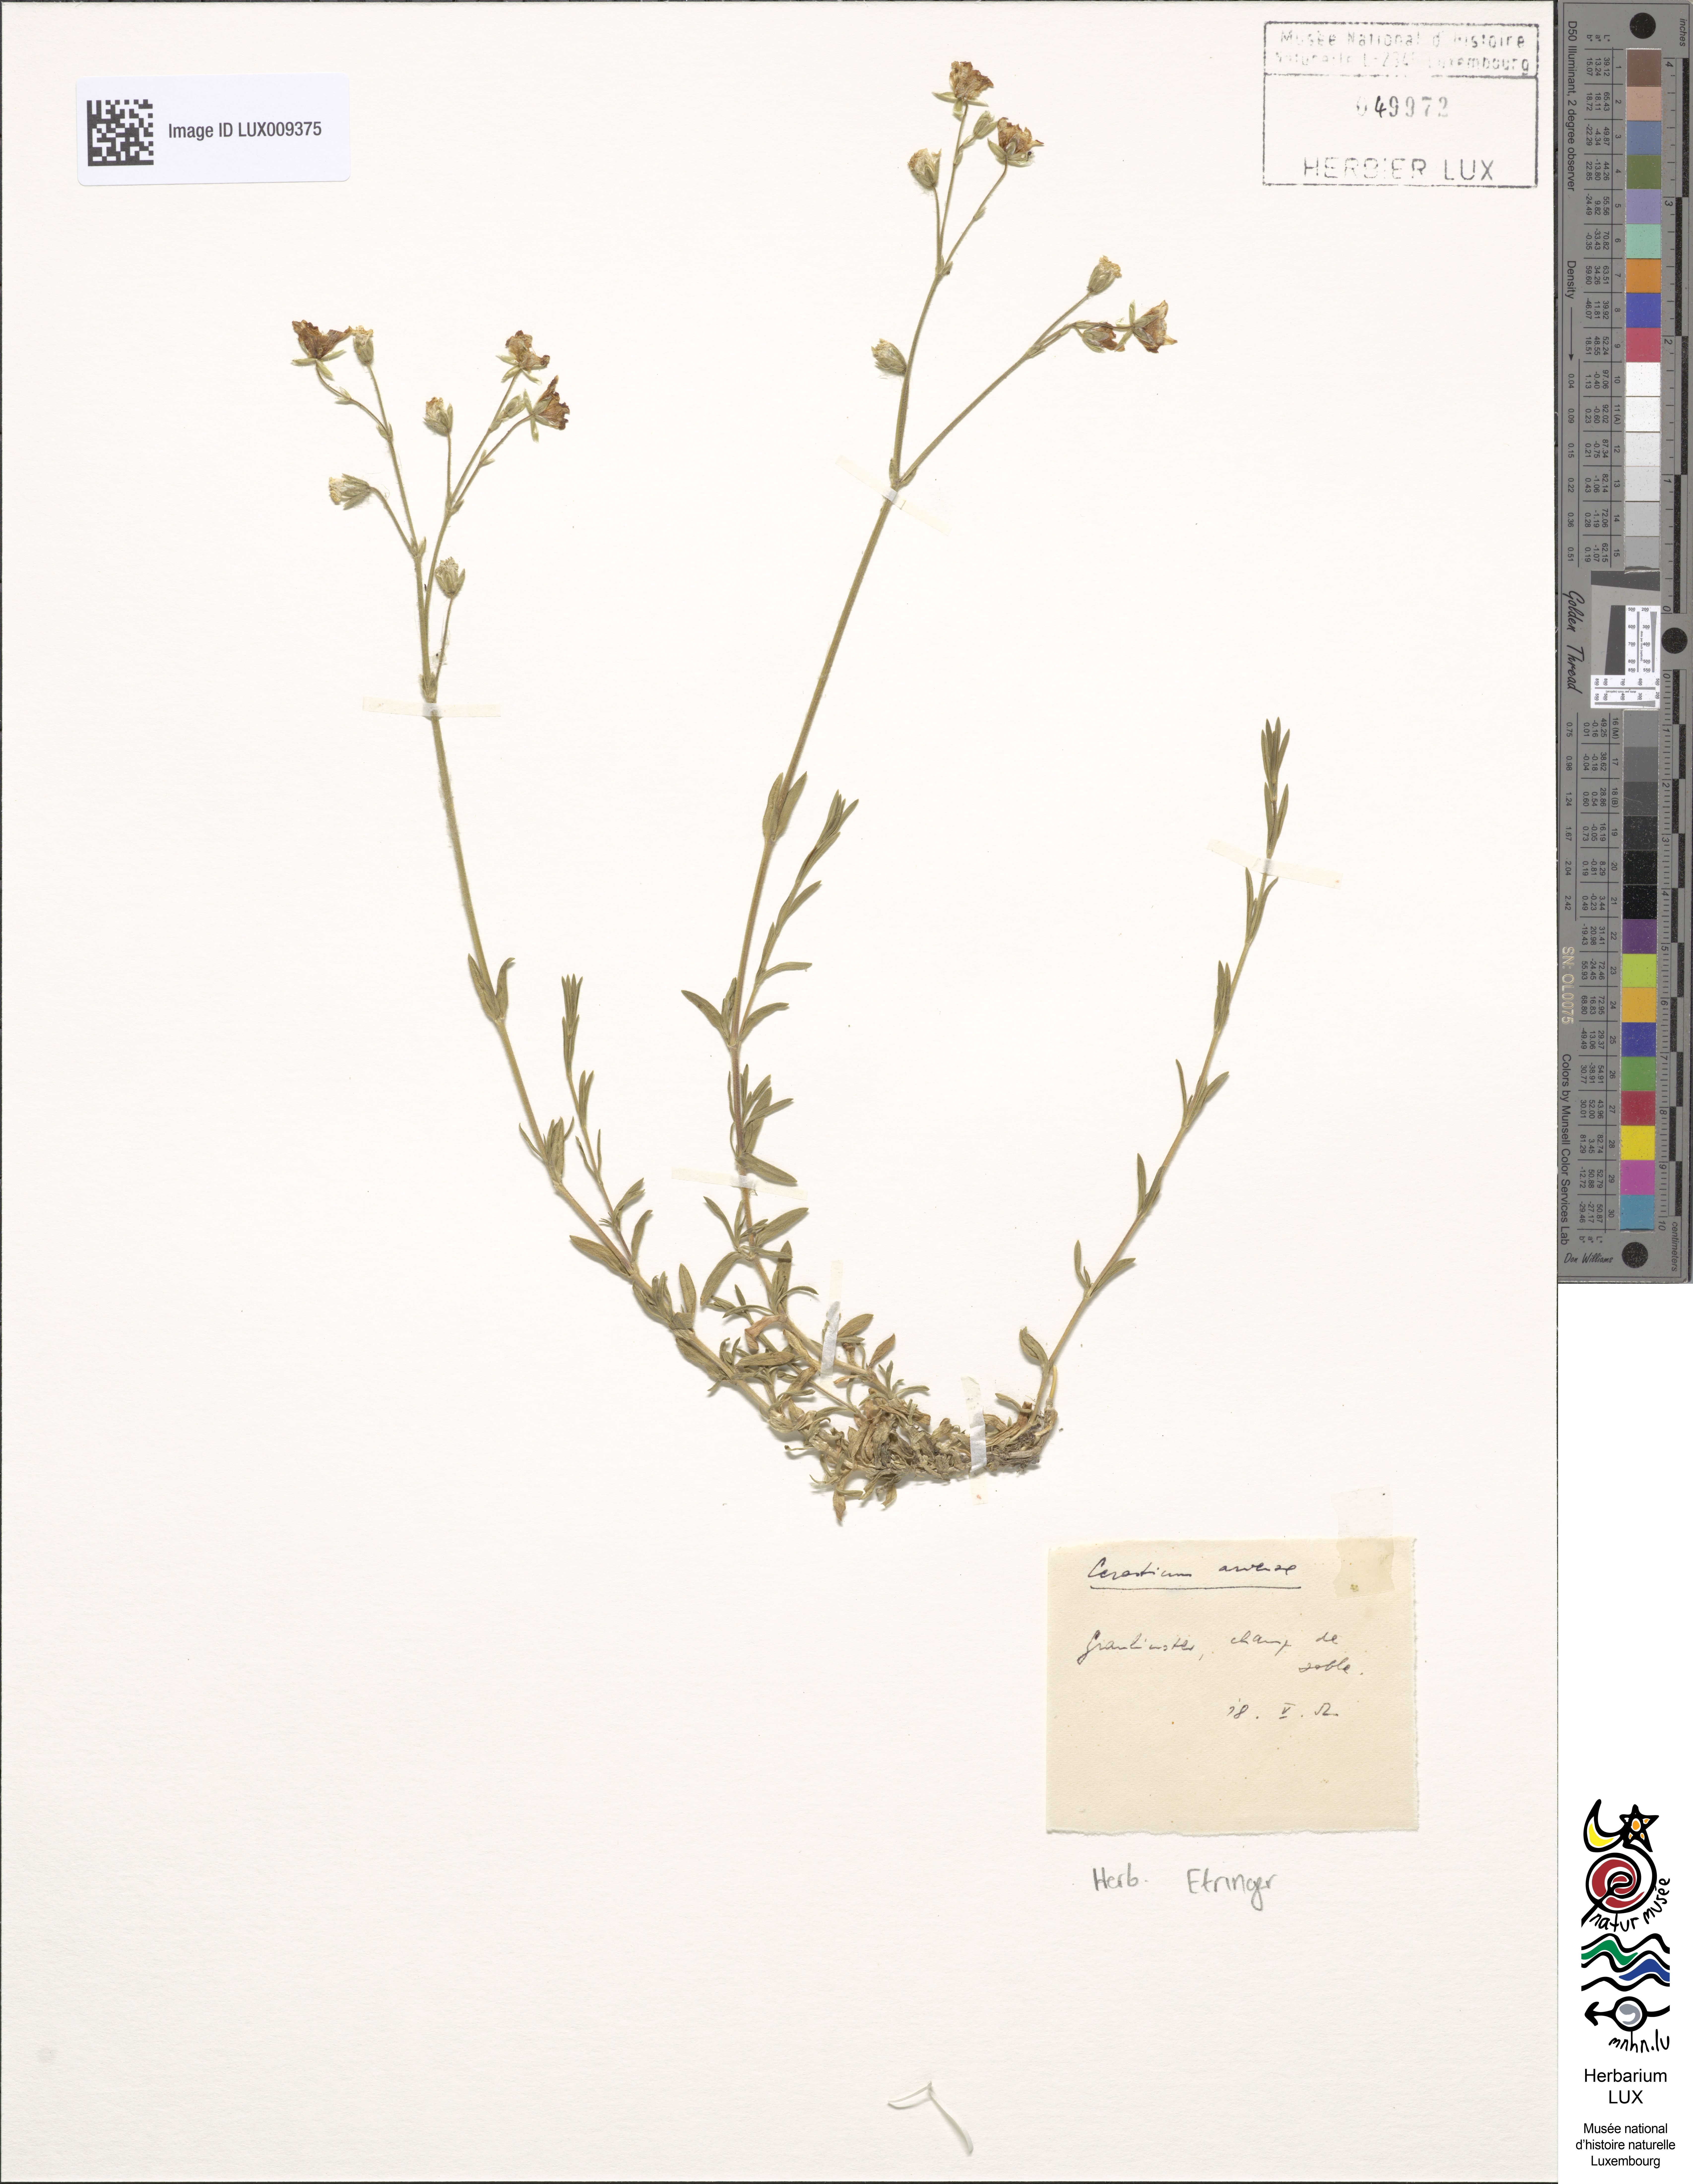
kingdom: Plantae
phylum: Tracheophyta
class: Magnoliopsida
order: Caryophyllales
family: Caryophyllaceae
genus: Cerastium
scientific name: Cerastium arvense
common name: Field mouse-ear
